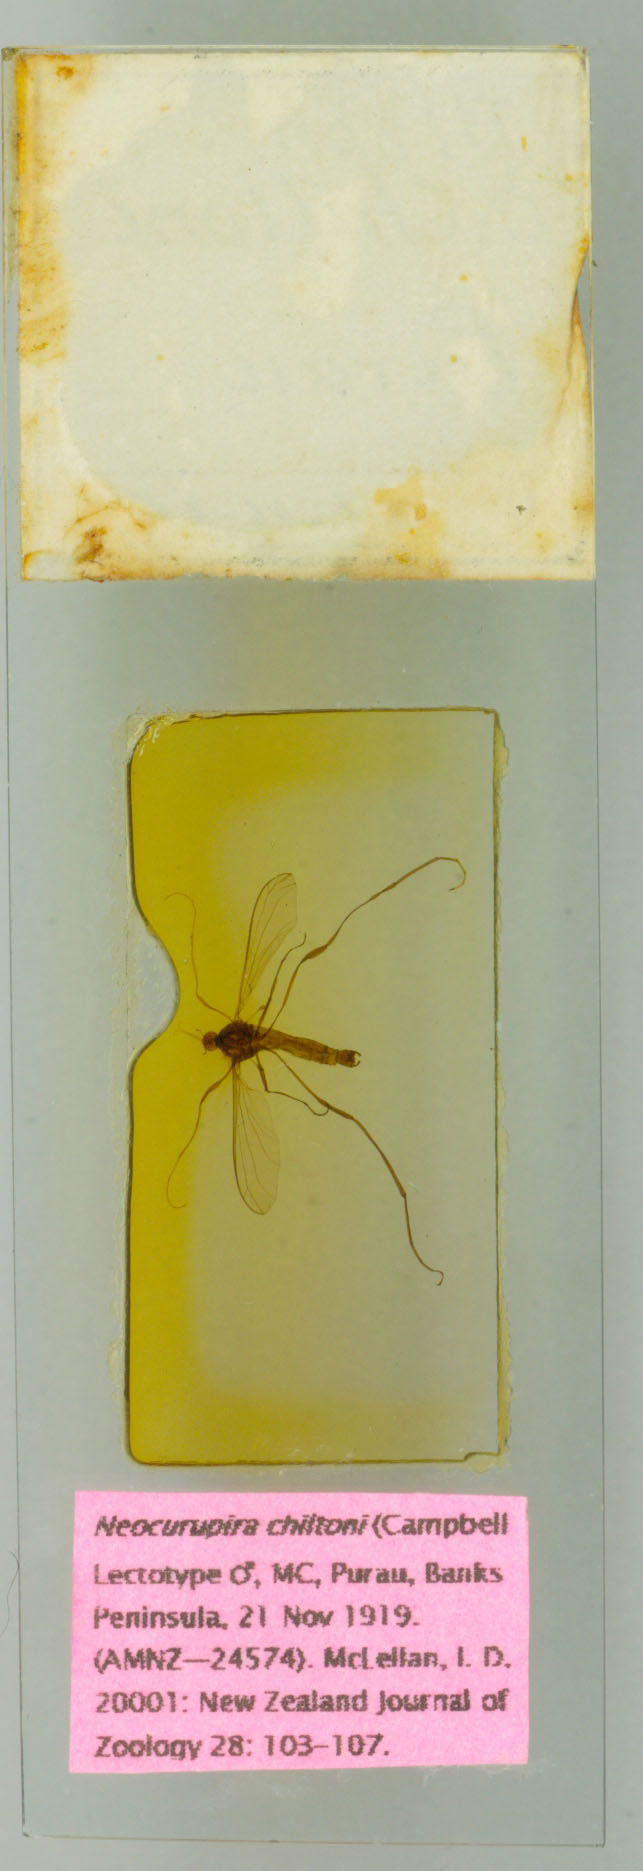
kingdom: Animalia
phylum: Arthropoda
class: Insecta
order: Diptera
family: Blephariceridae
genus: Neocurupira
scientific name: Neocurupira chiltoni
